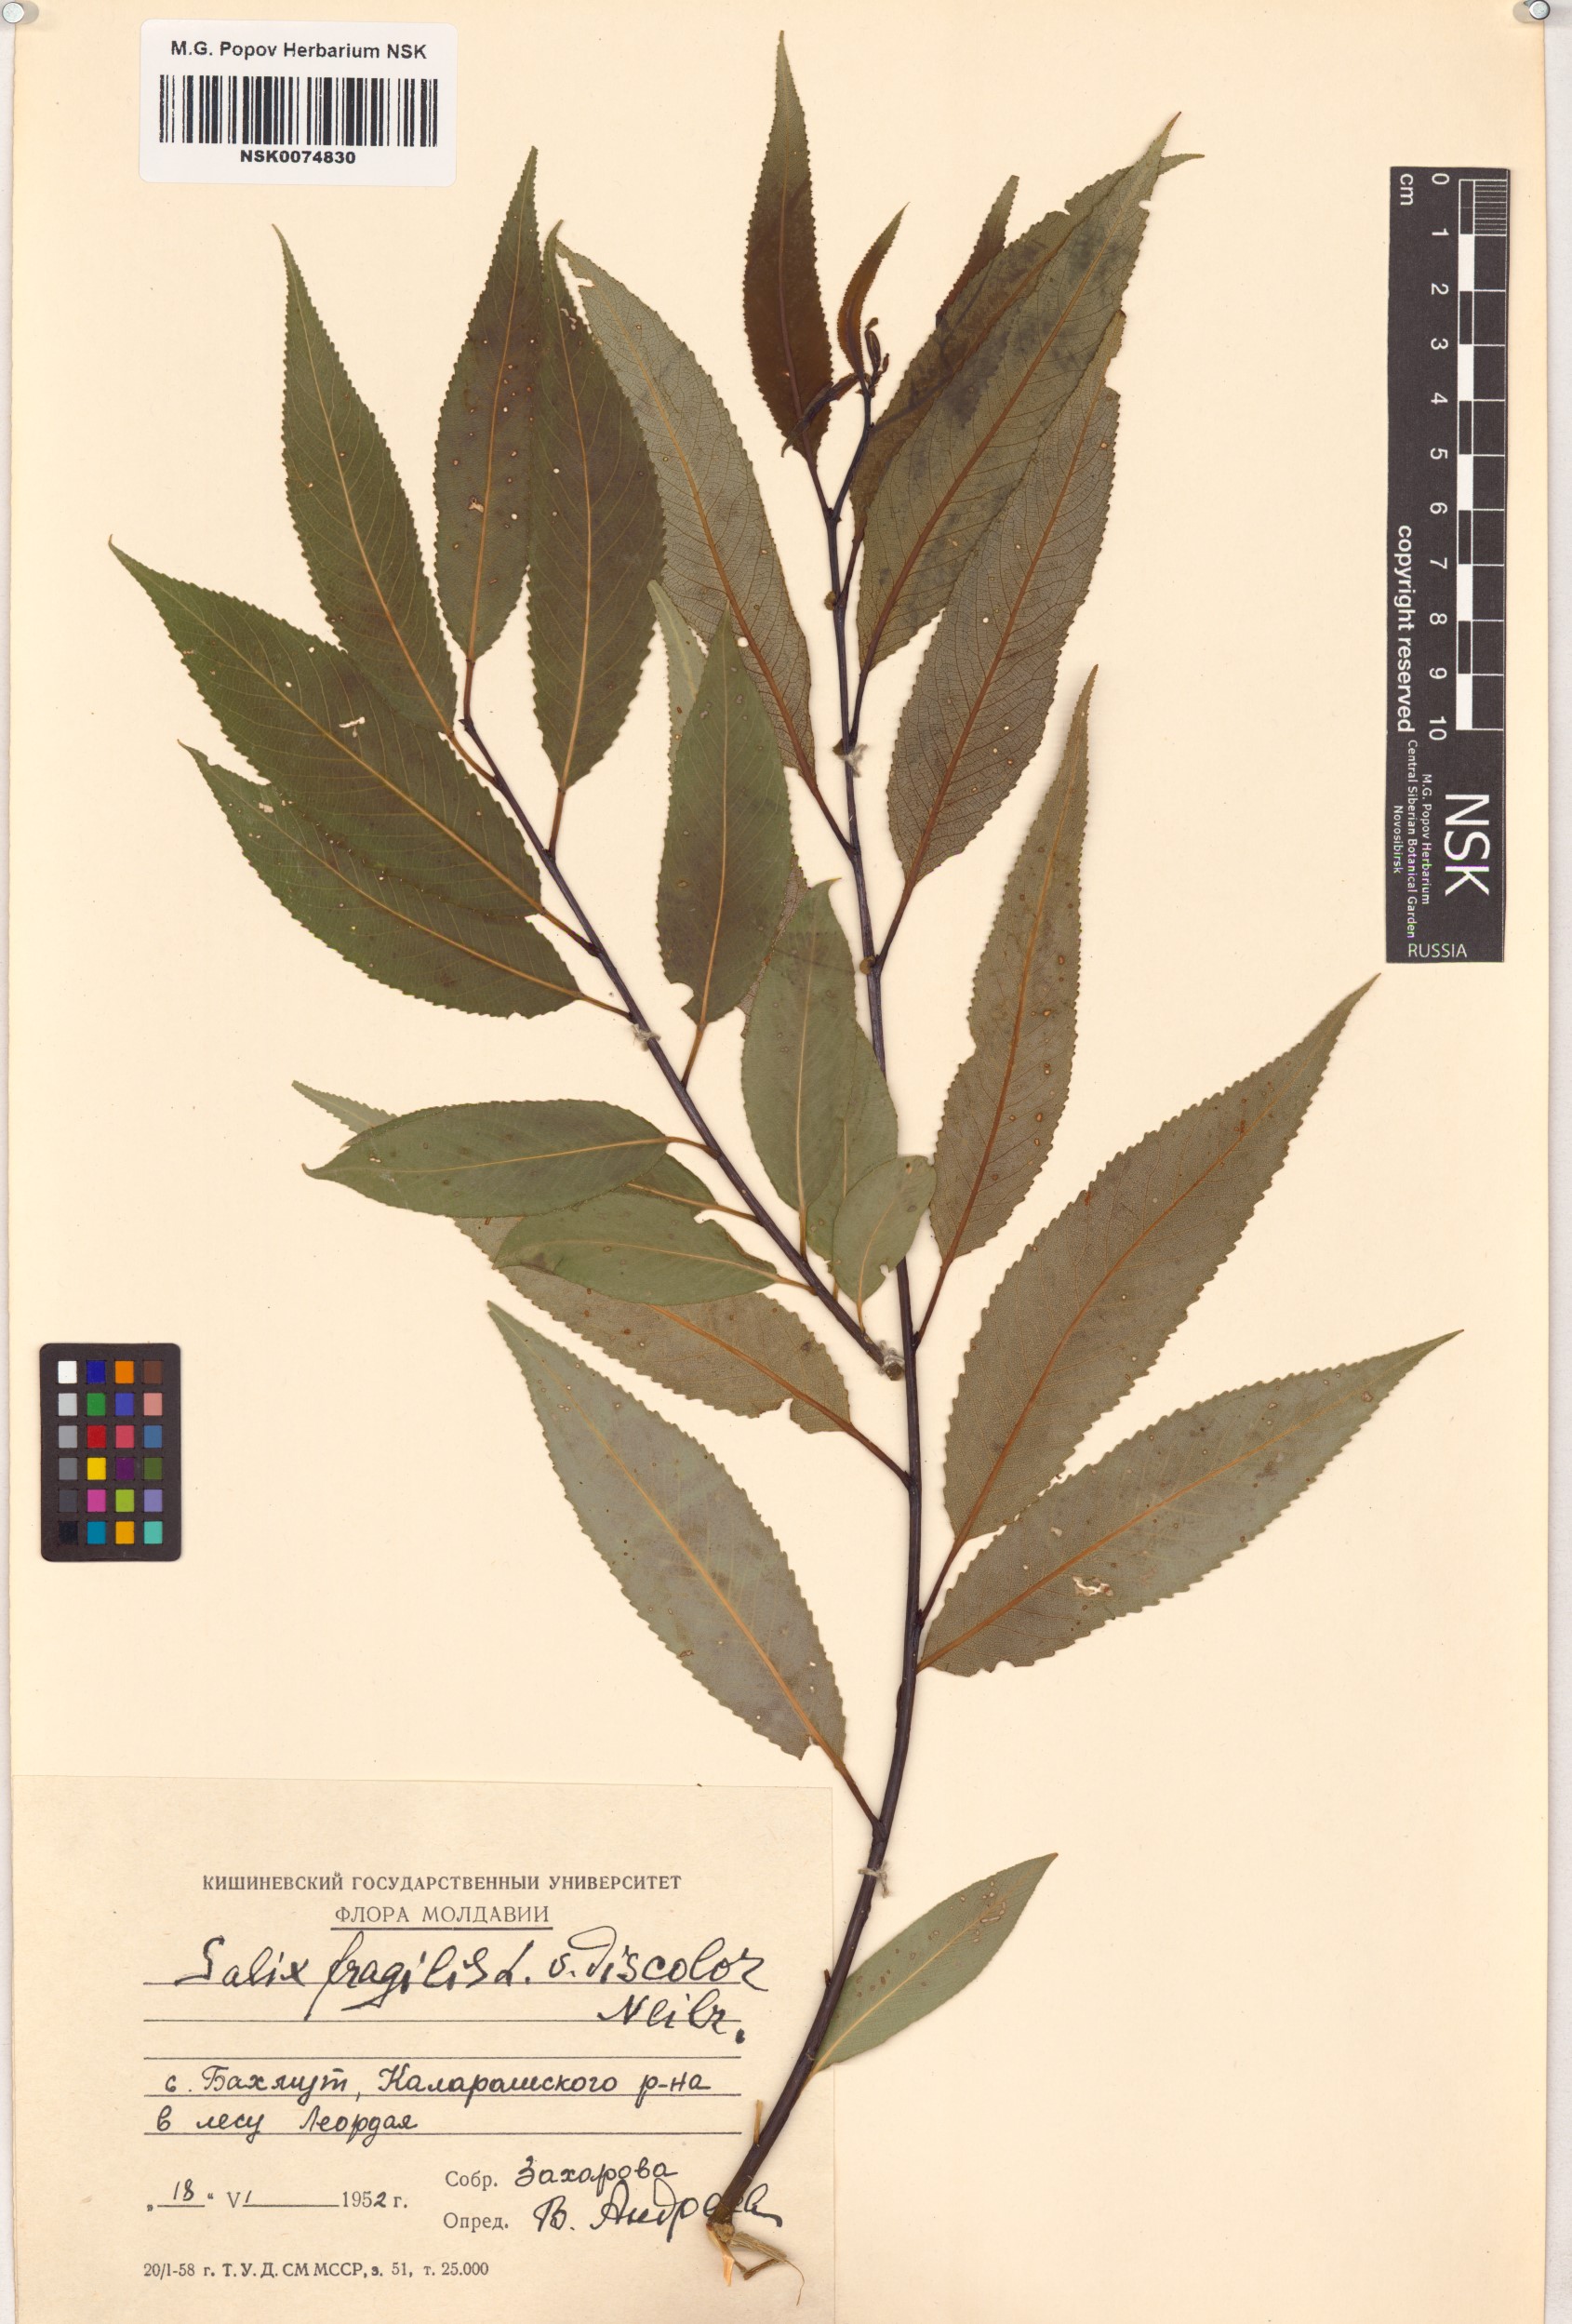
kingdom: Plantae
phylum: Tracheophyta
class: Magnoliopsida
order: Malpighiales
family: Salicaceae
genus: Salix
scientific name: Salix fragilis
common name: Crack willow
